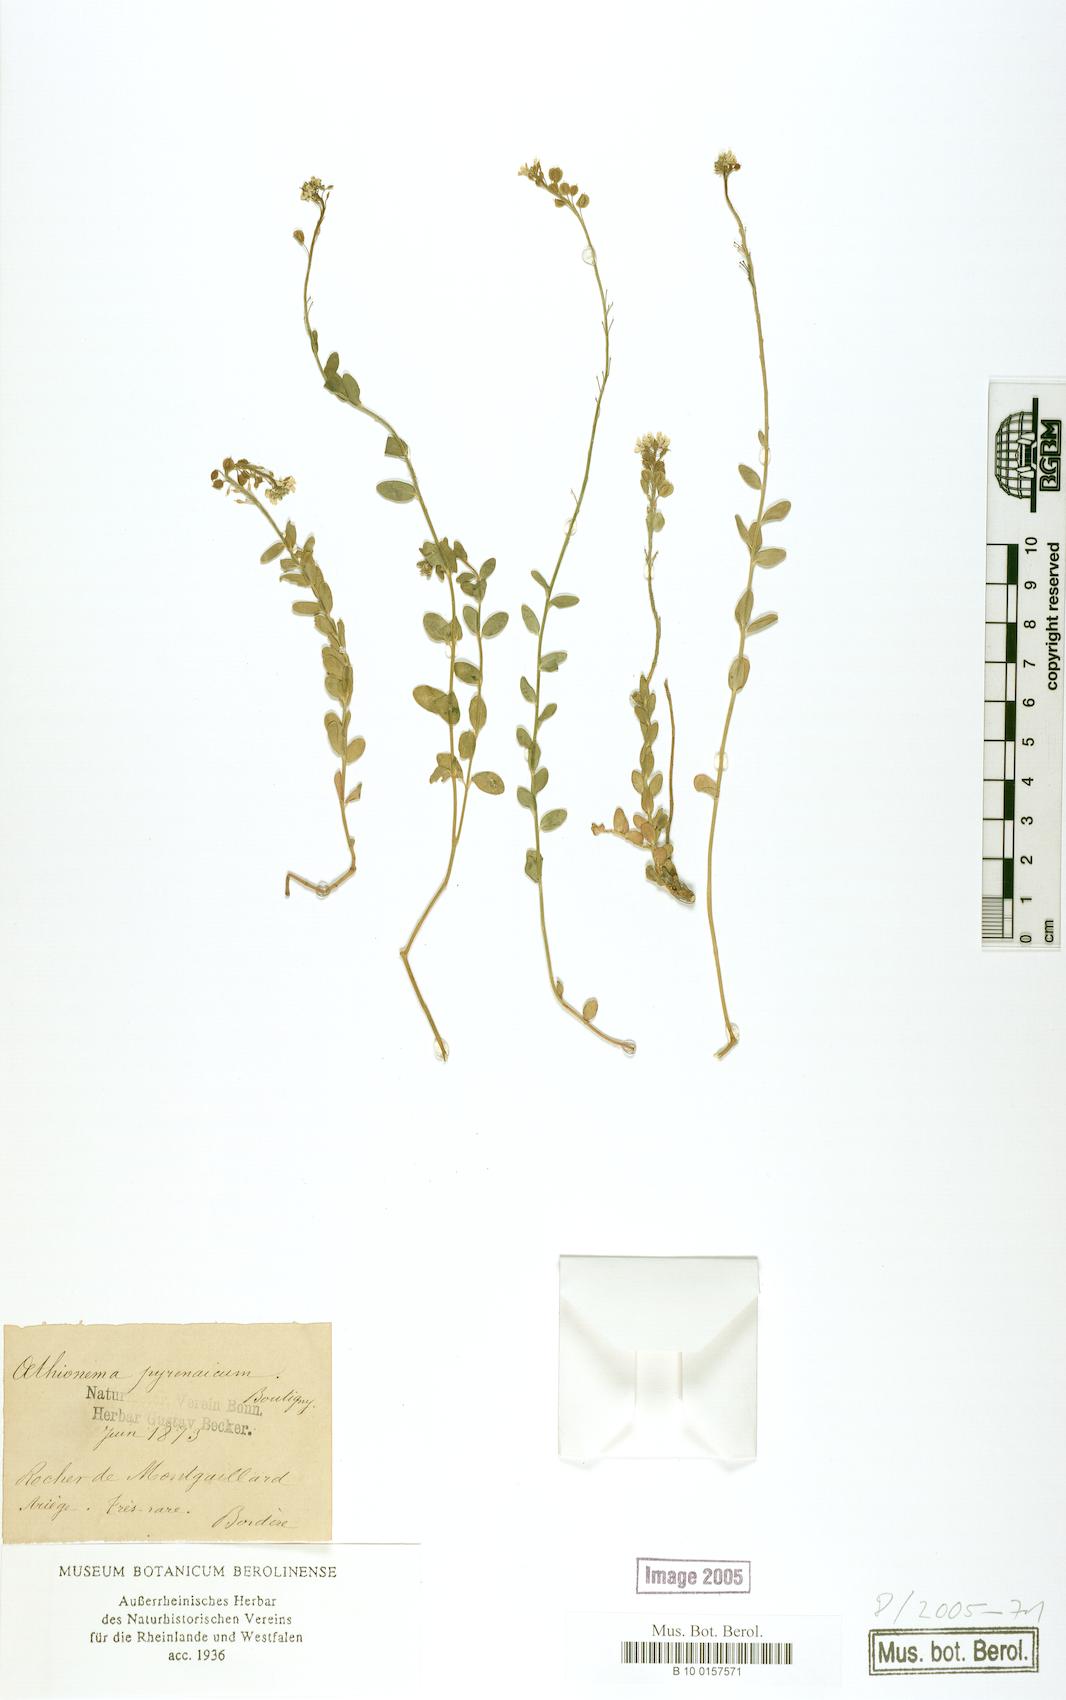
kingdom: Plantae
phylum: Tracheophyta
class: Magnoliopsida
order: Brassicales
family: Brassicaceae
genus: Aethionema
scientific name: Aethionema saxatile
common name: Burnt candytuft
